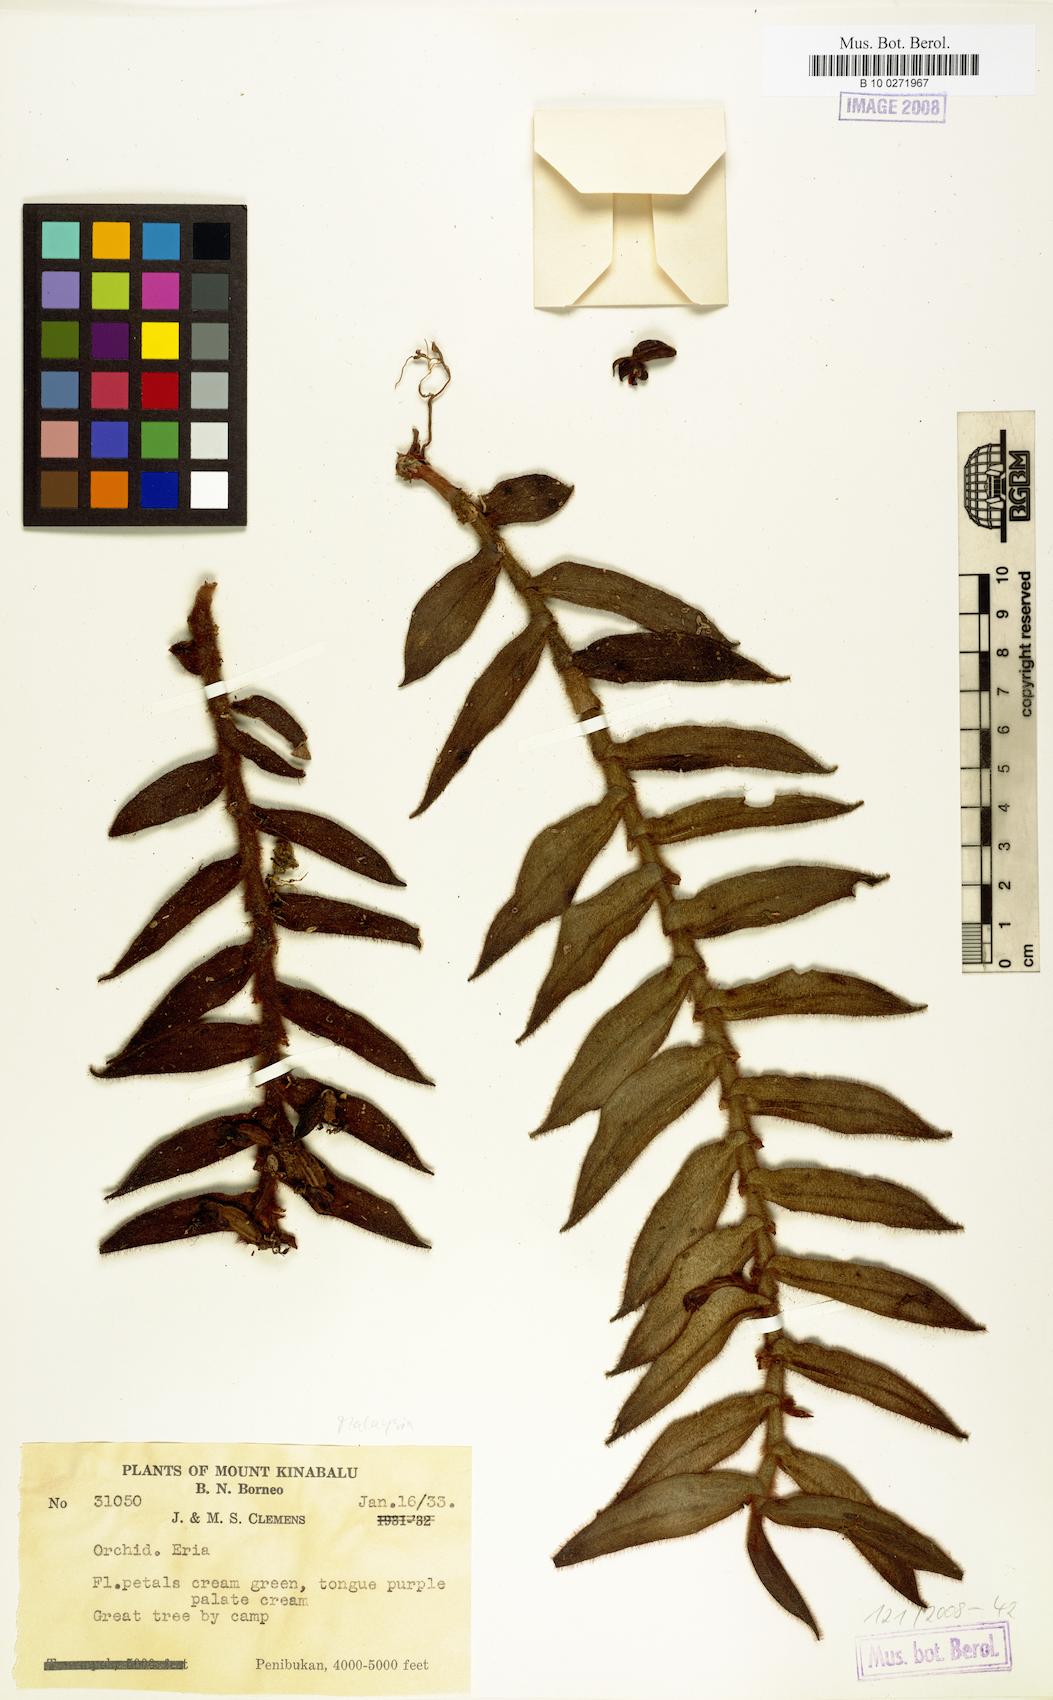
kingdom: Plantae
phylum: Tracheophyta
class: Liliopsida
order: Asparagales
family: Orchidaceae
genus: Eria
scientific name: Eria
